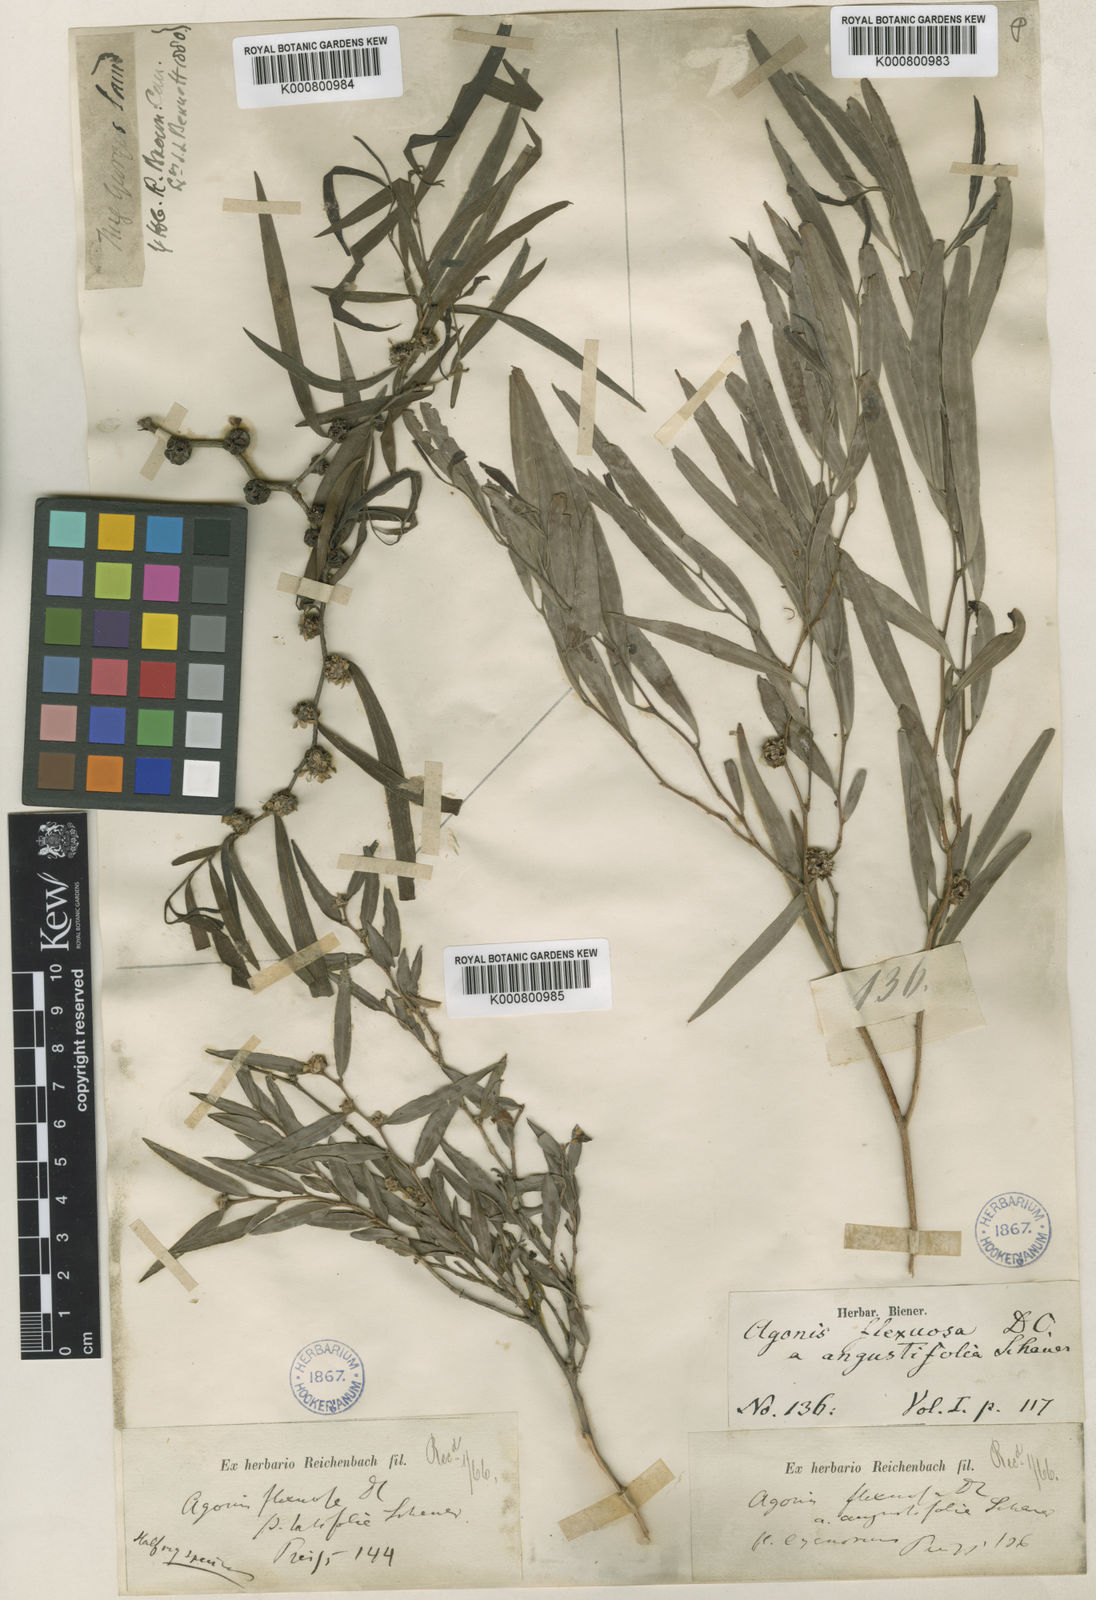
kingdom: Plantae
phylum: Tracheophyta
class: Magnoliopsida
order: Myrtales
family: Myrtaceae
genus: Agonis
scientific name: Agonis flexuosa
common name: Willow myrtle
